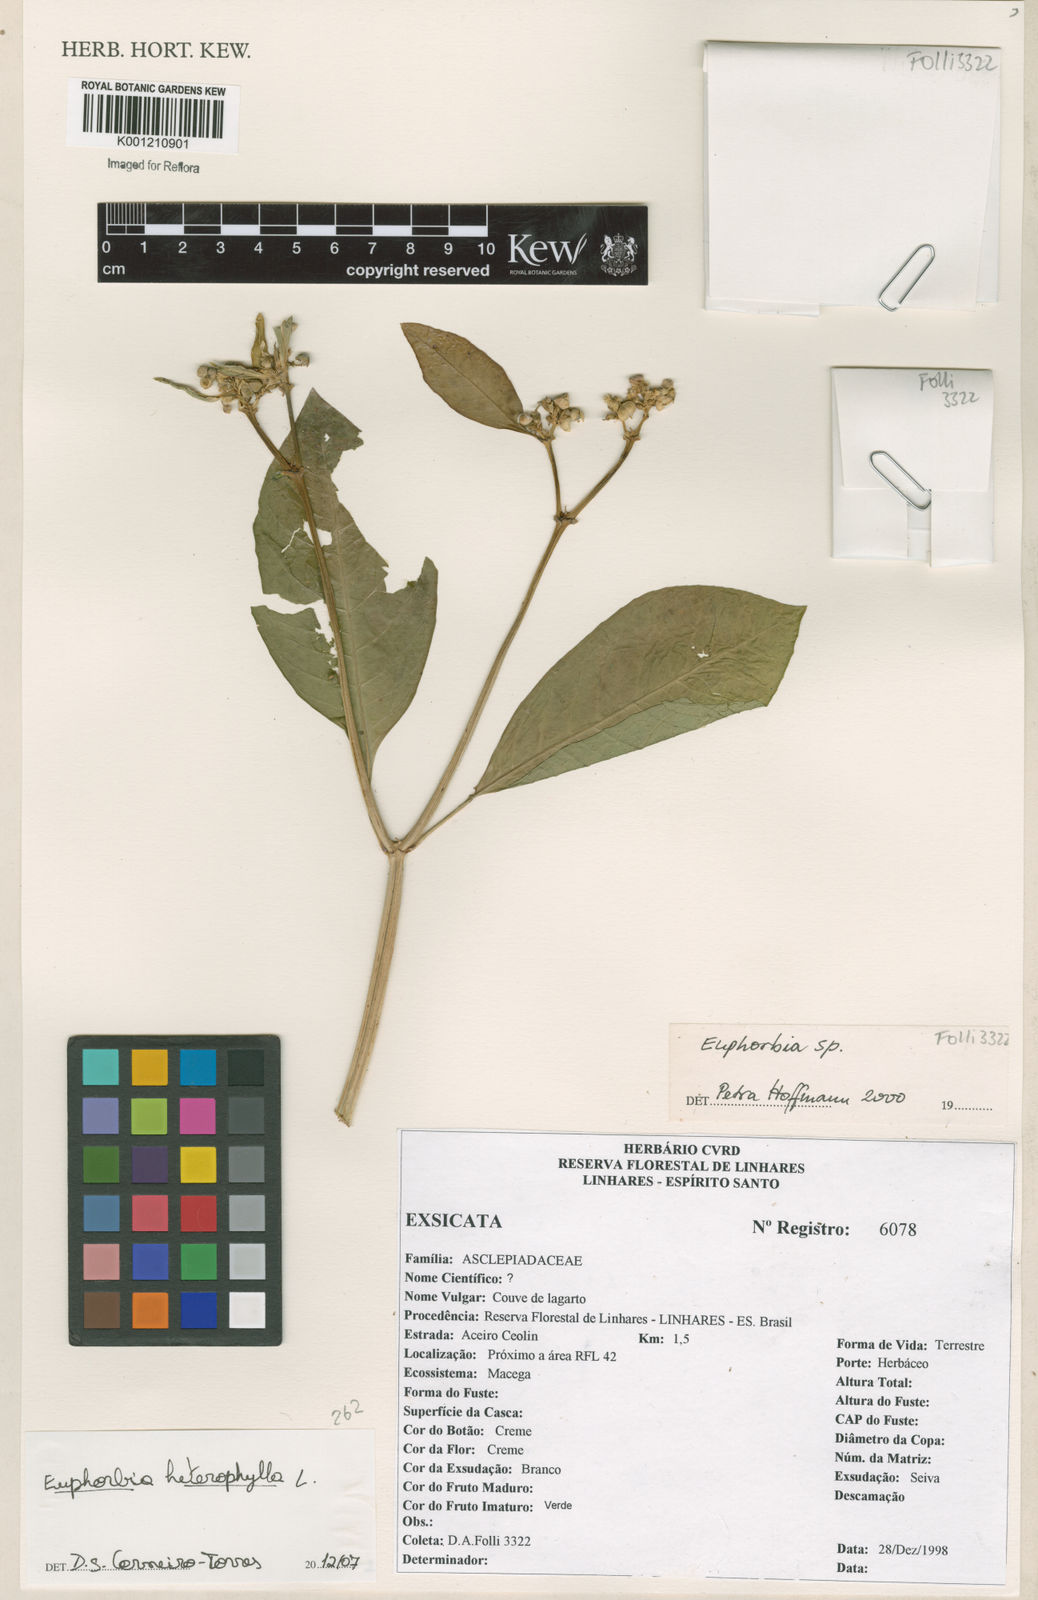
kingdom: Plantae
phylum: Tracheophyta
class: Magnoliopsida
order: Malpighiales
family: Euphorbiaceae
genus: Euphorbia
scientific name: Euphorbia heterophylla
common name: Mexican fireplant
